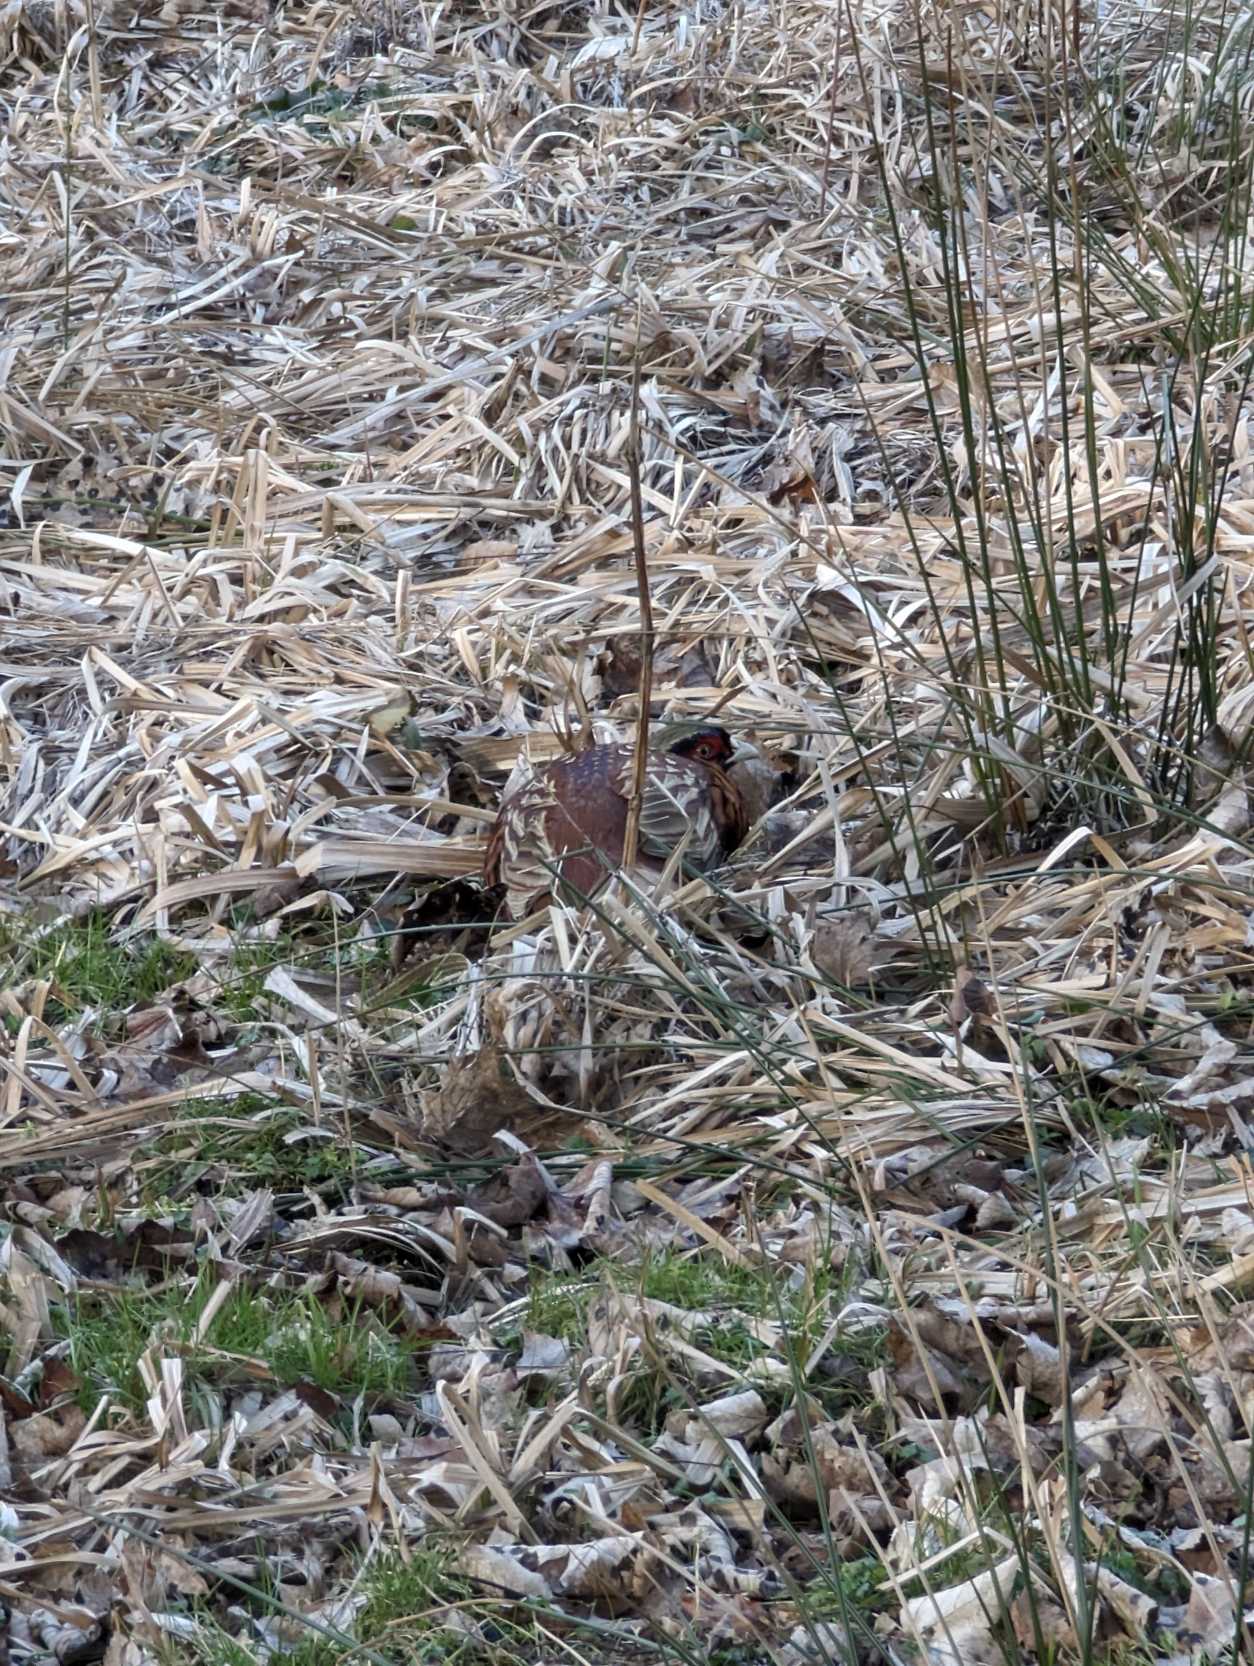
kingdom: Animalia
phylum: Chordata
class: Aves
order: Galliformes
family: Phasianidae
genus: Phasianus
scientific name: Phasianus colchicus
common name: Fasan
